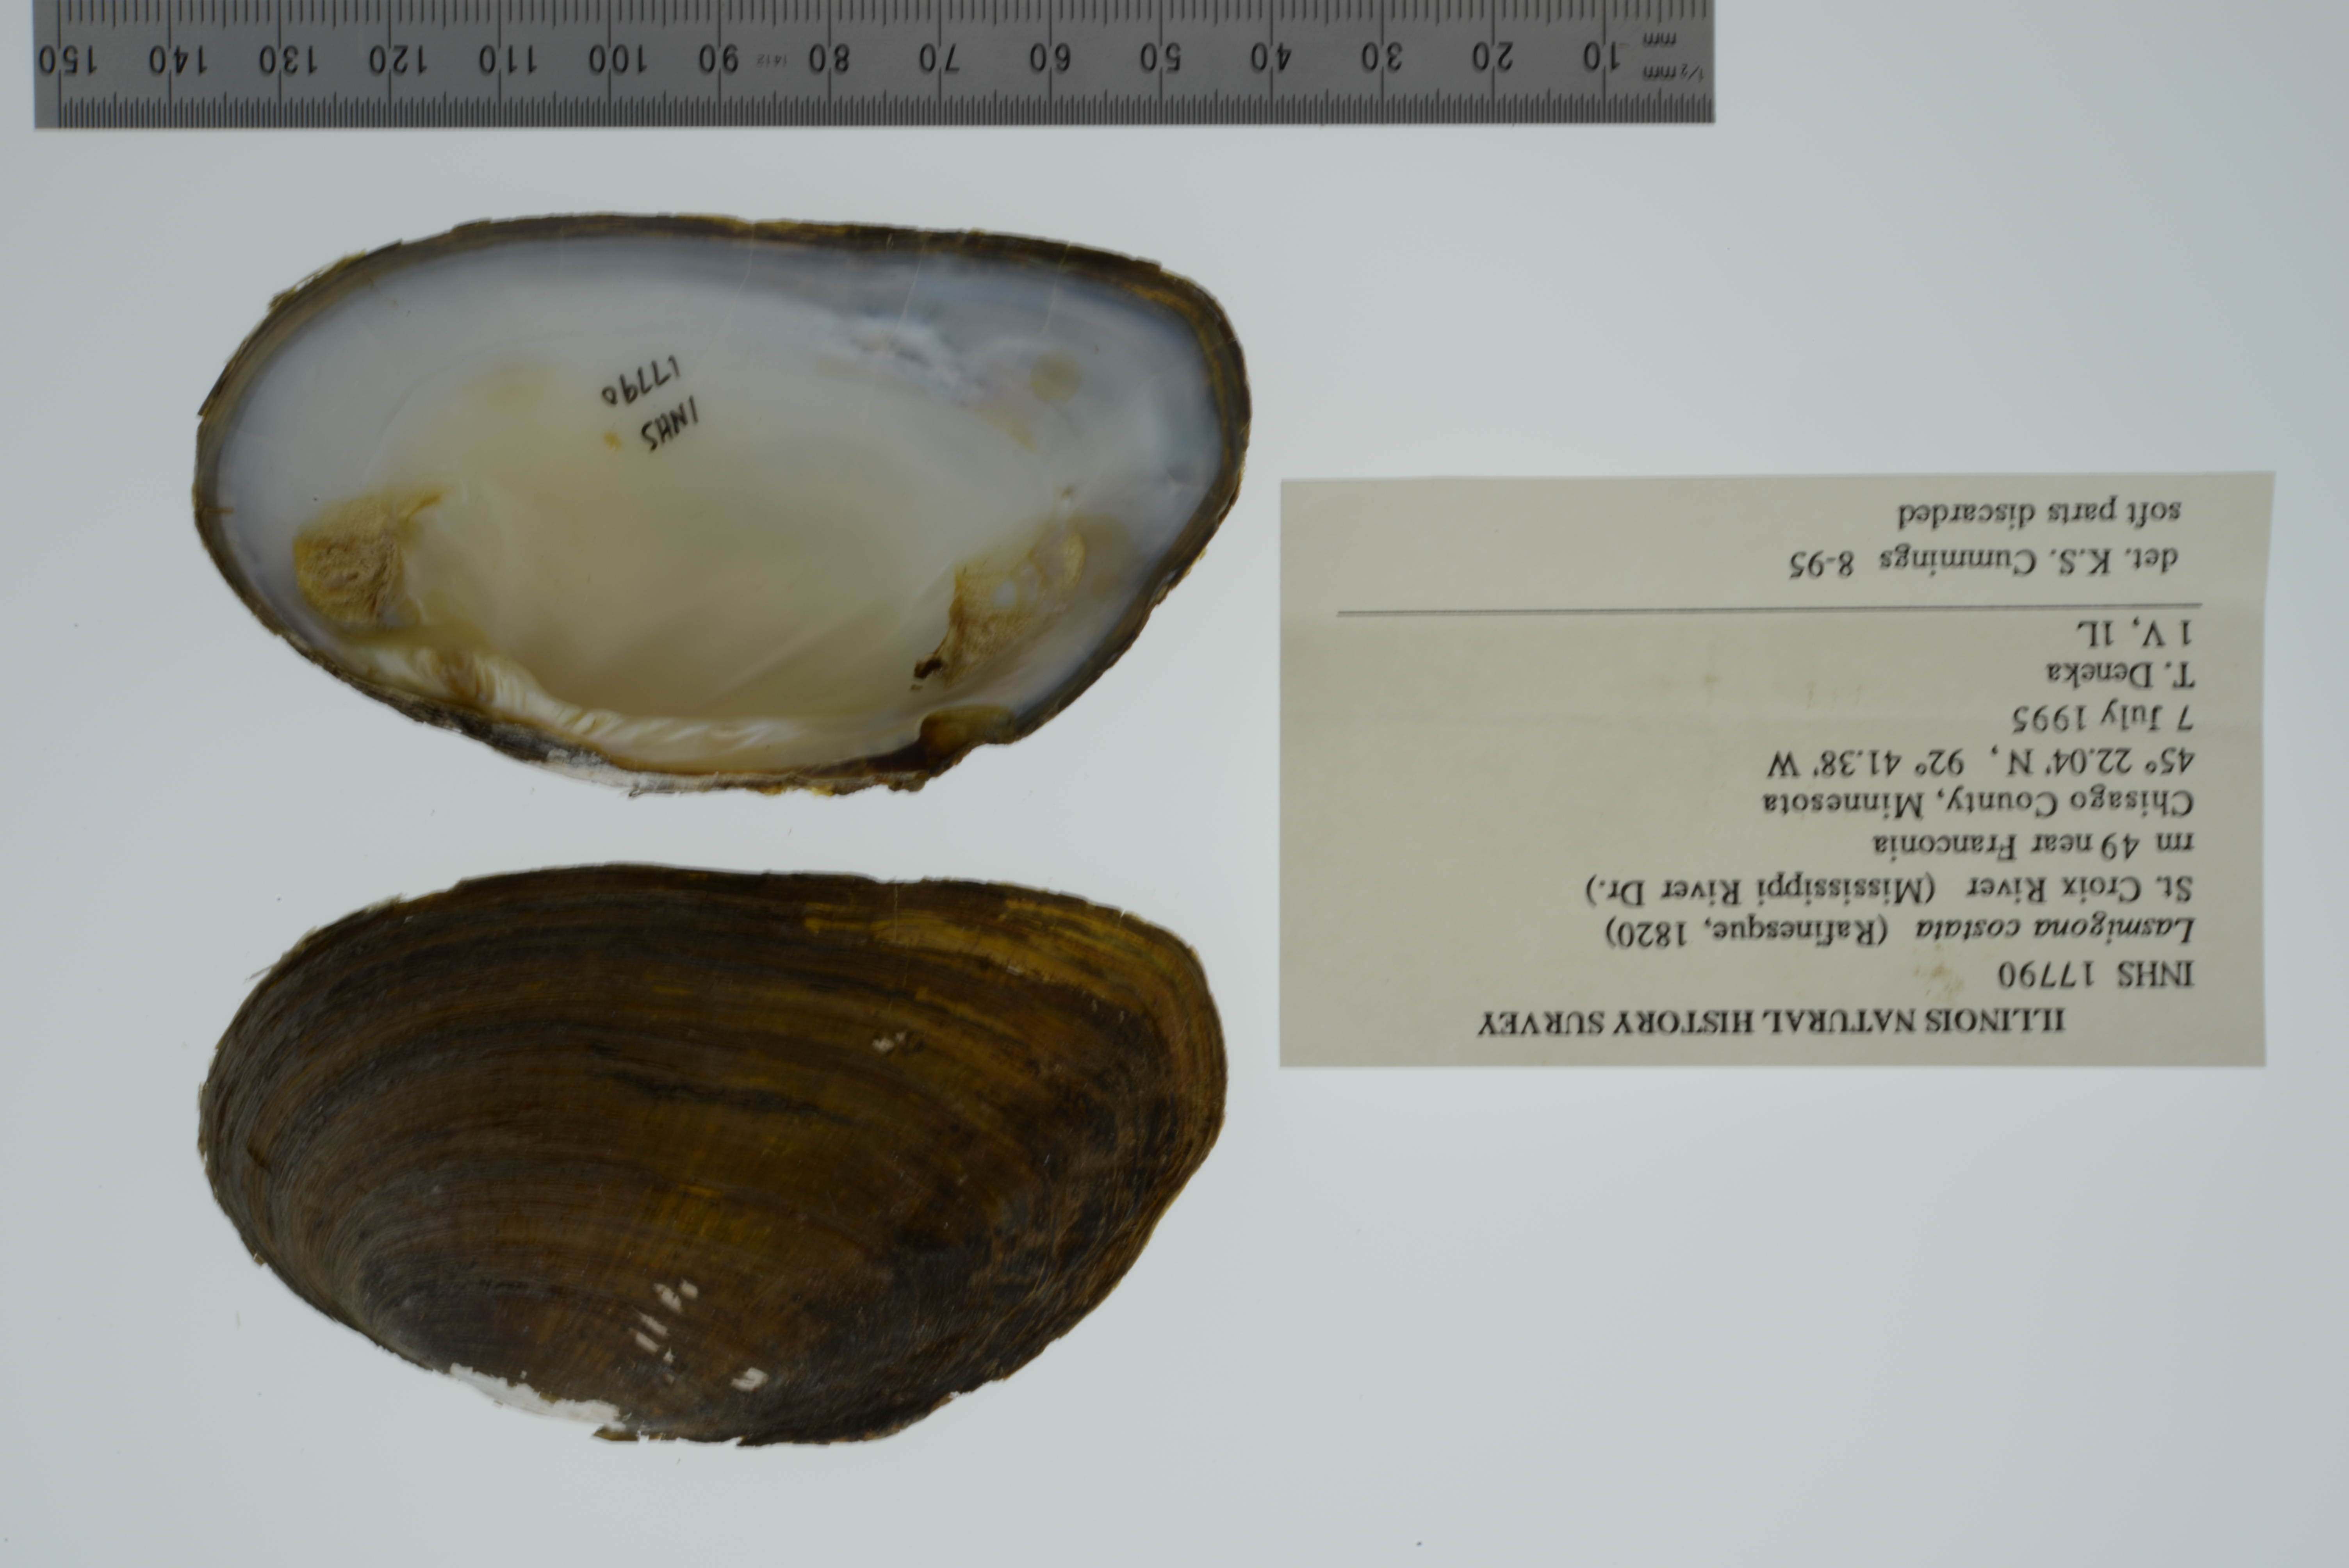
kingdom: Animalia
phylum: Mollusca
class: Bivalvia
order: Unionida
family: Unionidae
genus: Lasmigona
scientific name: Lasmigona costata
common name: Flutedshell
